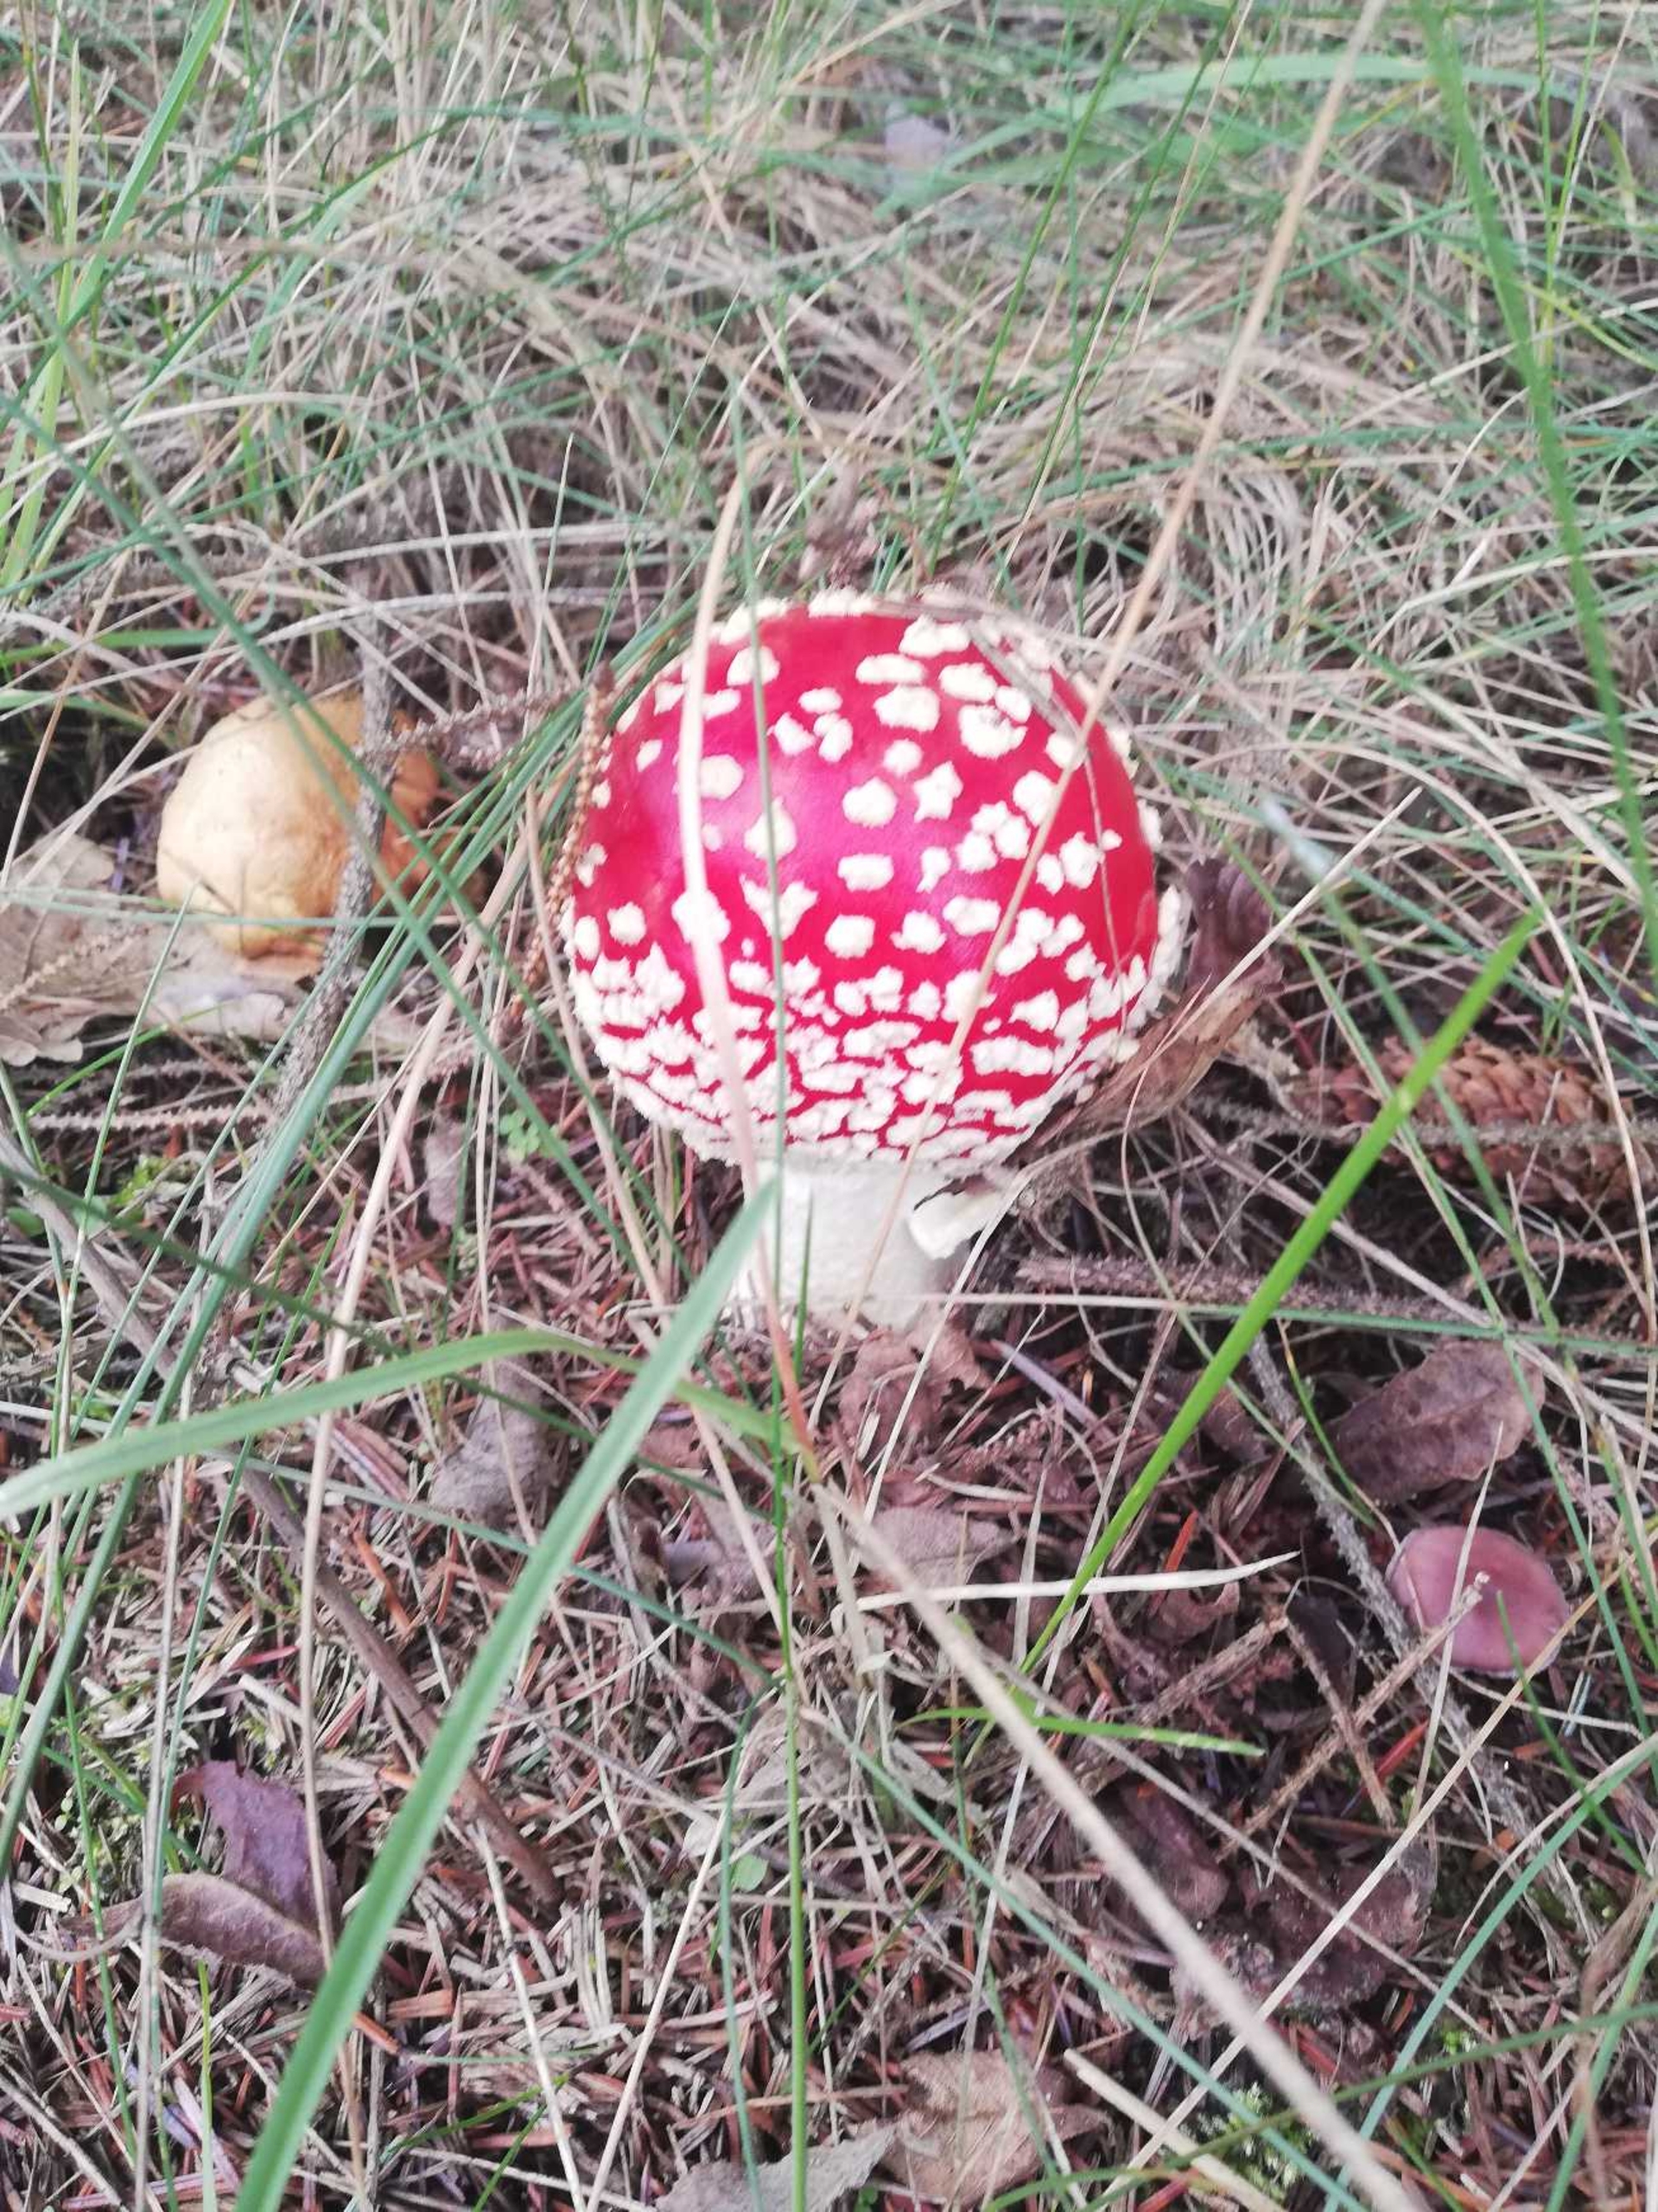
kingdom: Fungi
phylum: Basidiomycota
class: Agaricomycetes
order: Agaricales
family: Amanitaceae
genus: Amanita
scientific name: Amanita muscaria
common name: Rød fluesvamp
